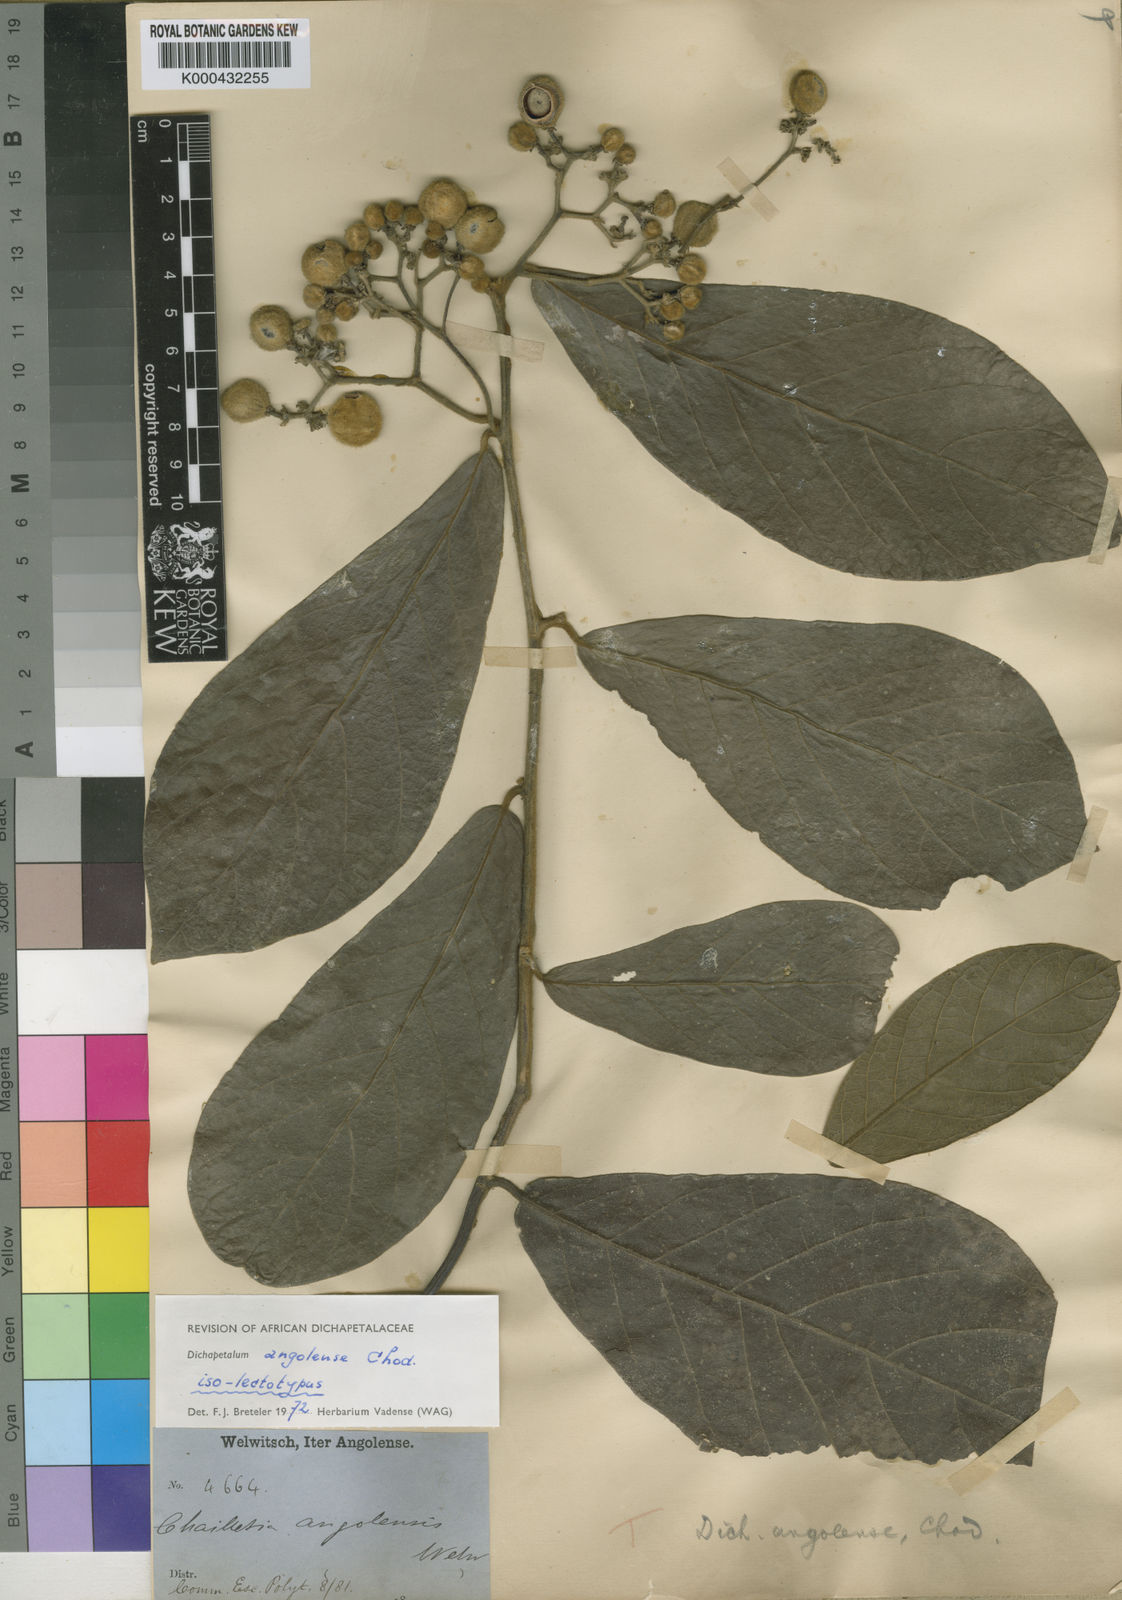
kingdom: Plantae
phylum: Tracheophyta
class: Magnoliopsida
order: Malpighiales
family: Dichapetalaceae
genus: Dichapetalum
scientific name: Dichapetalum angolense
